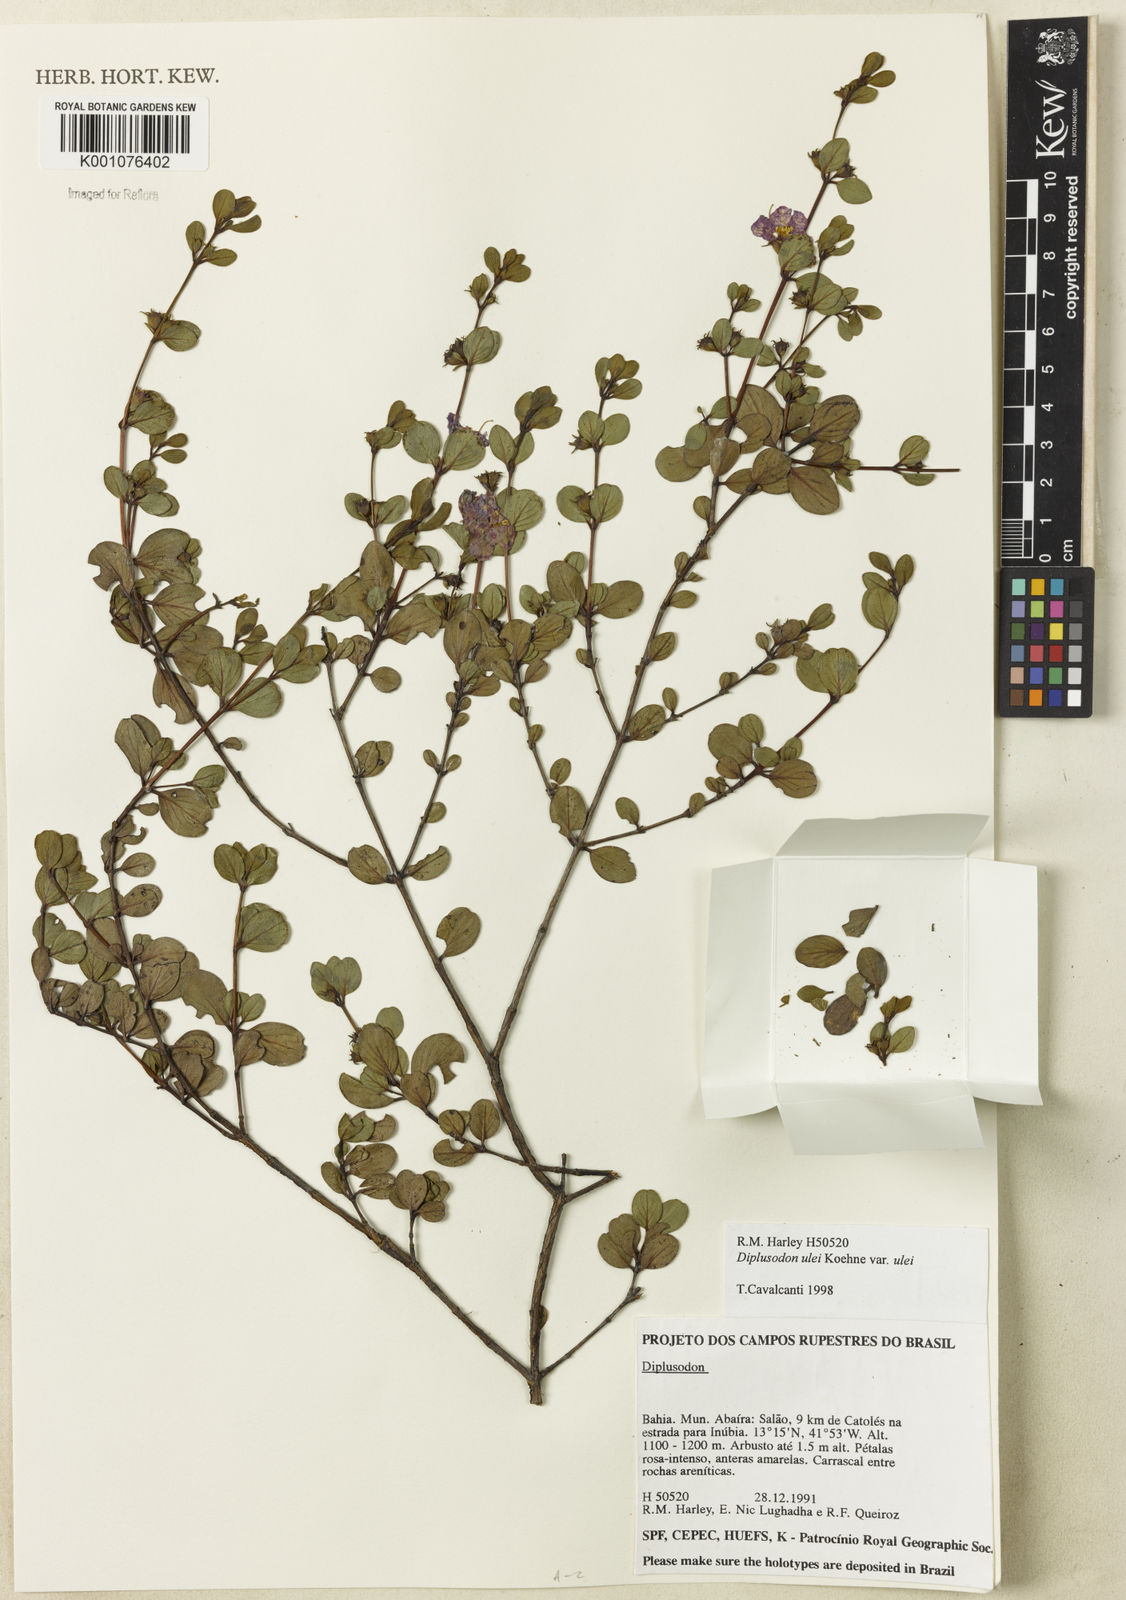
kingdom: Plantae
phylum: Tracheophyta
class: Magnoliopsida
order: Myrtales
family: Lythraceae
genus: Diplusodon
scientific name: Diplusodon ulei
